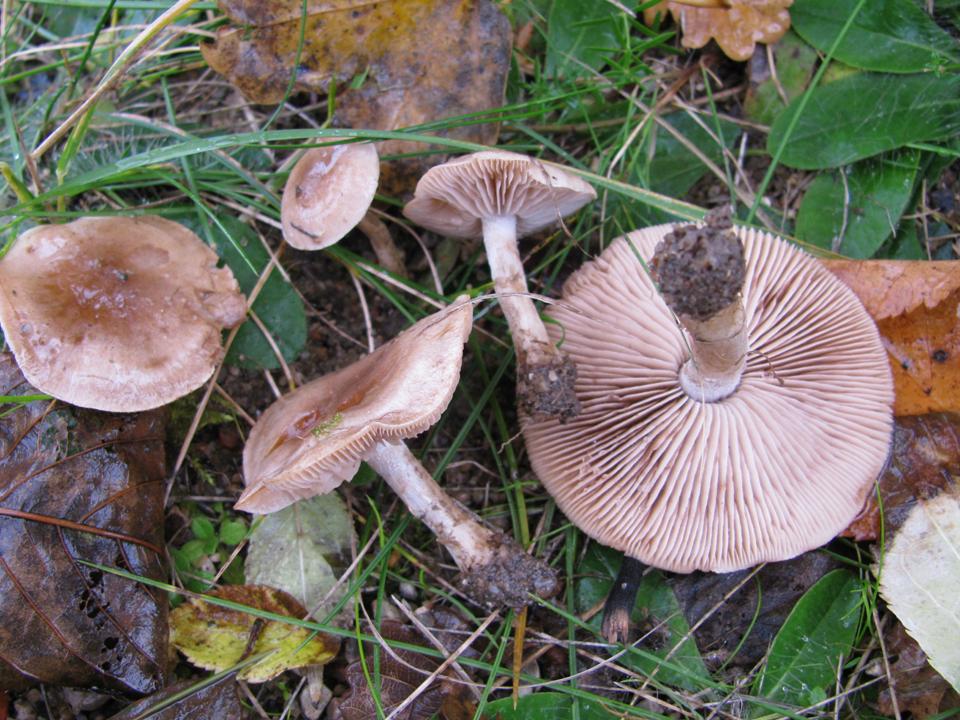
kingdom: Fungi
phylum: Basidiomycota
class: Agaricomycetes
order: Agaricales
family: Hymenogastraceae
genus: Hebeloma
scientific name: Hebeloma mesophaeum
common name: lerbrun tåreblad
